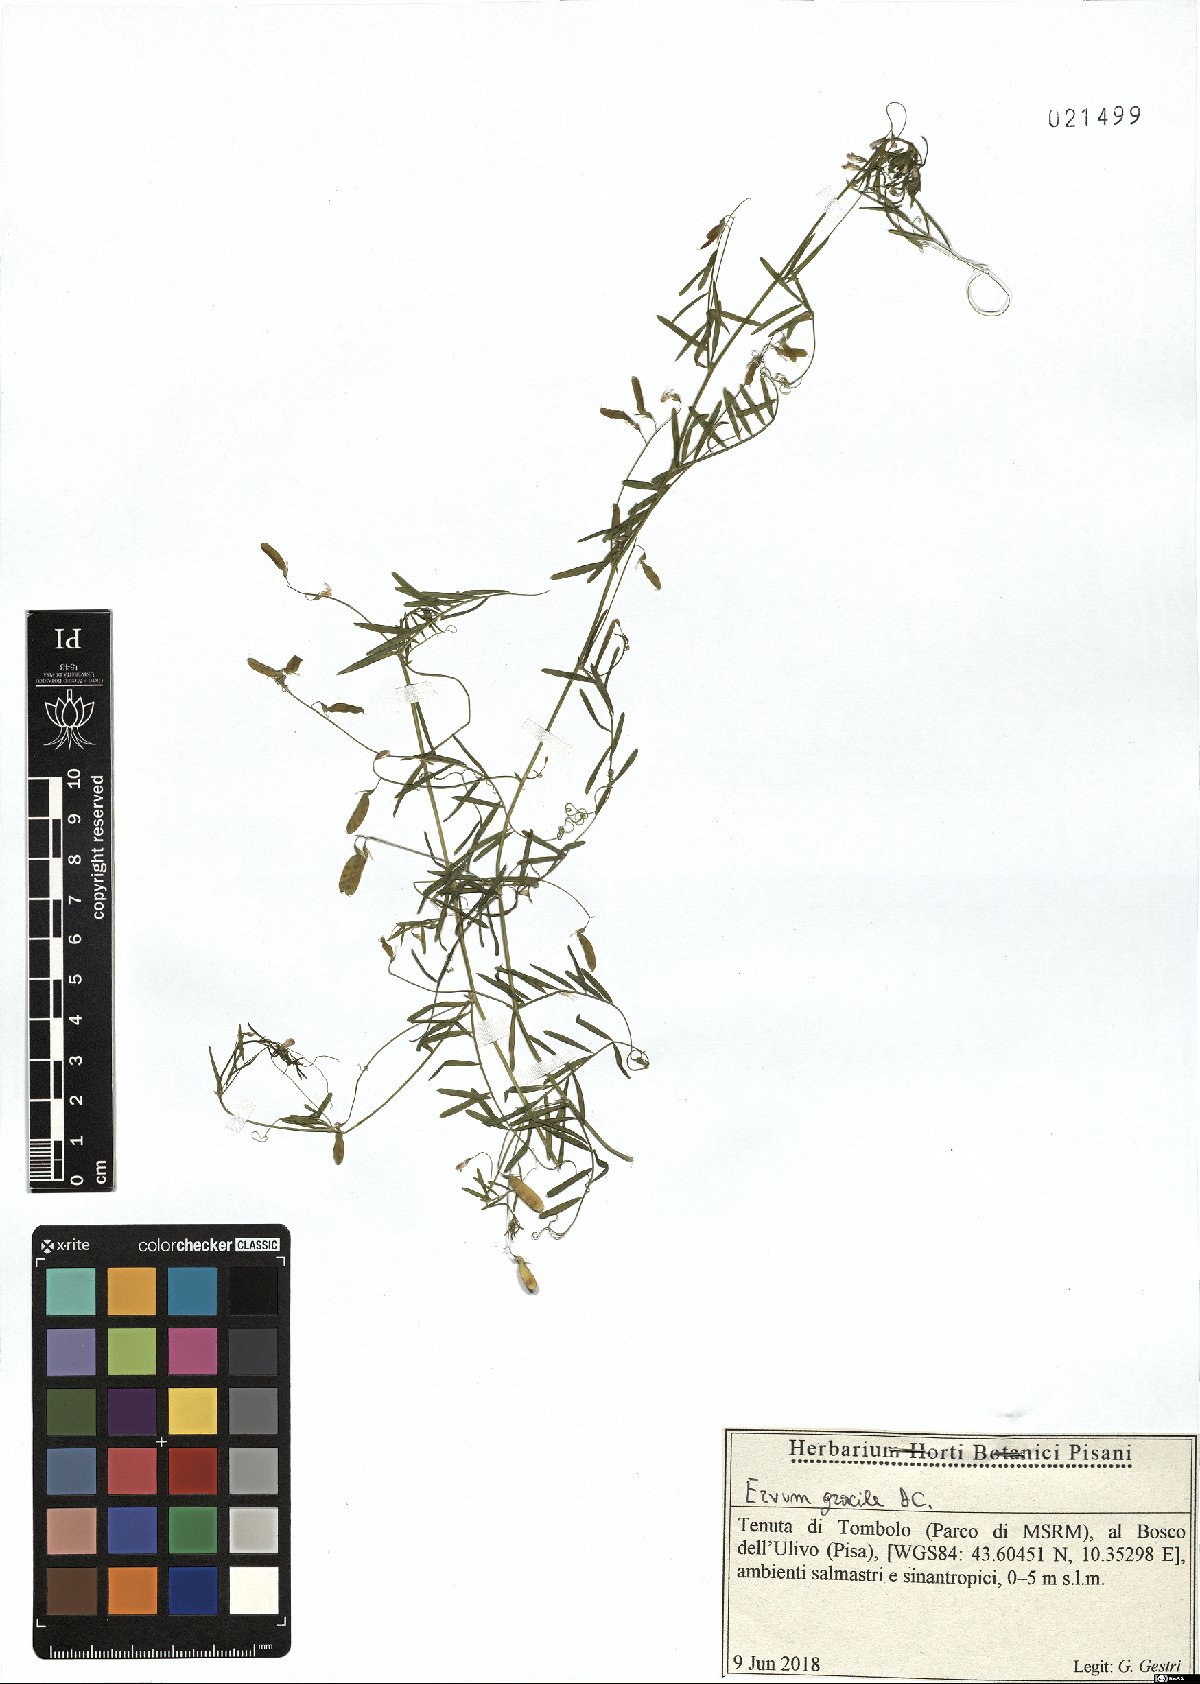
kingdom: Plantae
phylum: Tracheophyta
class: Magnoliopsida
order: Fabales
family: Fabaceae
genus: Vicia
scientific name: Vicia parviflora
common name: Slender tare
